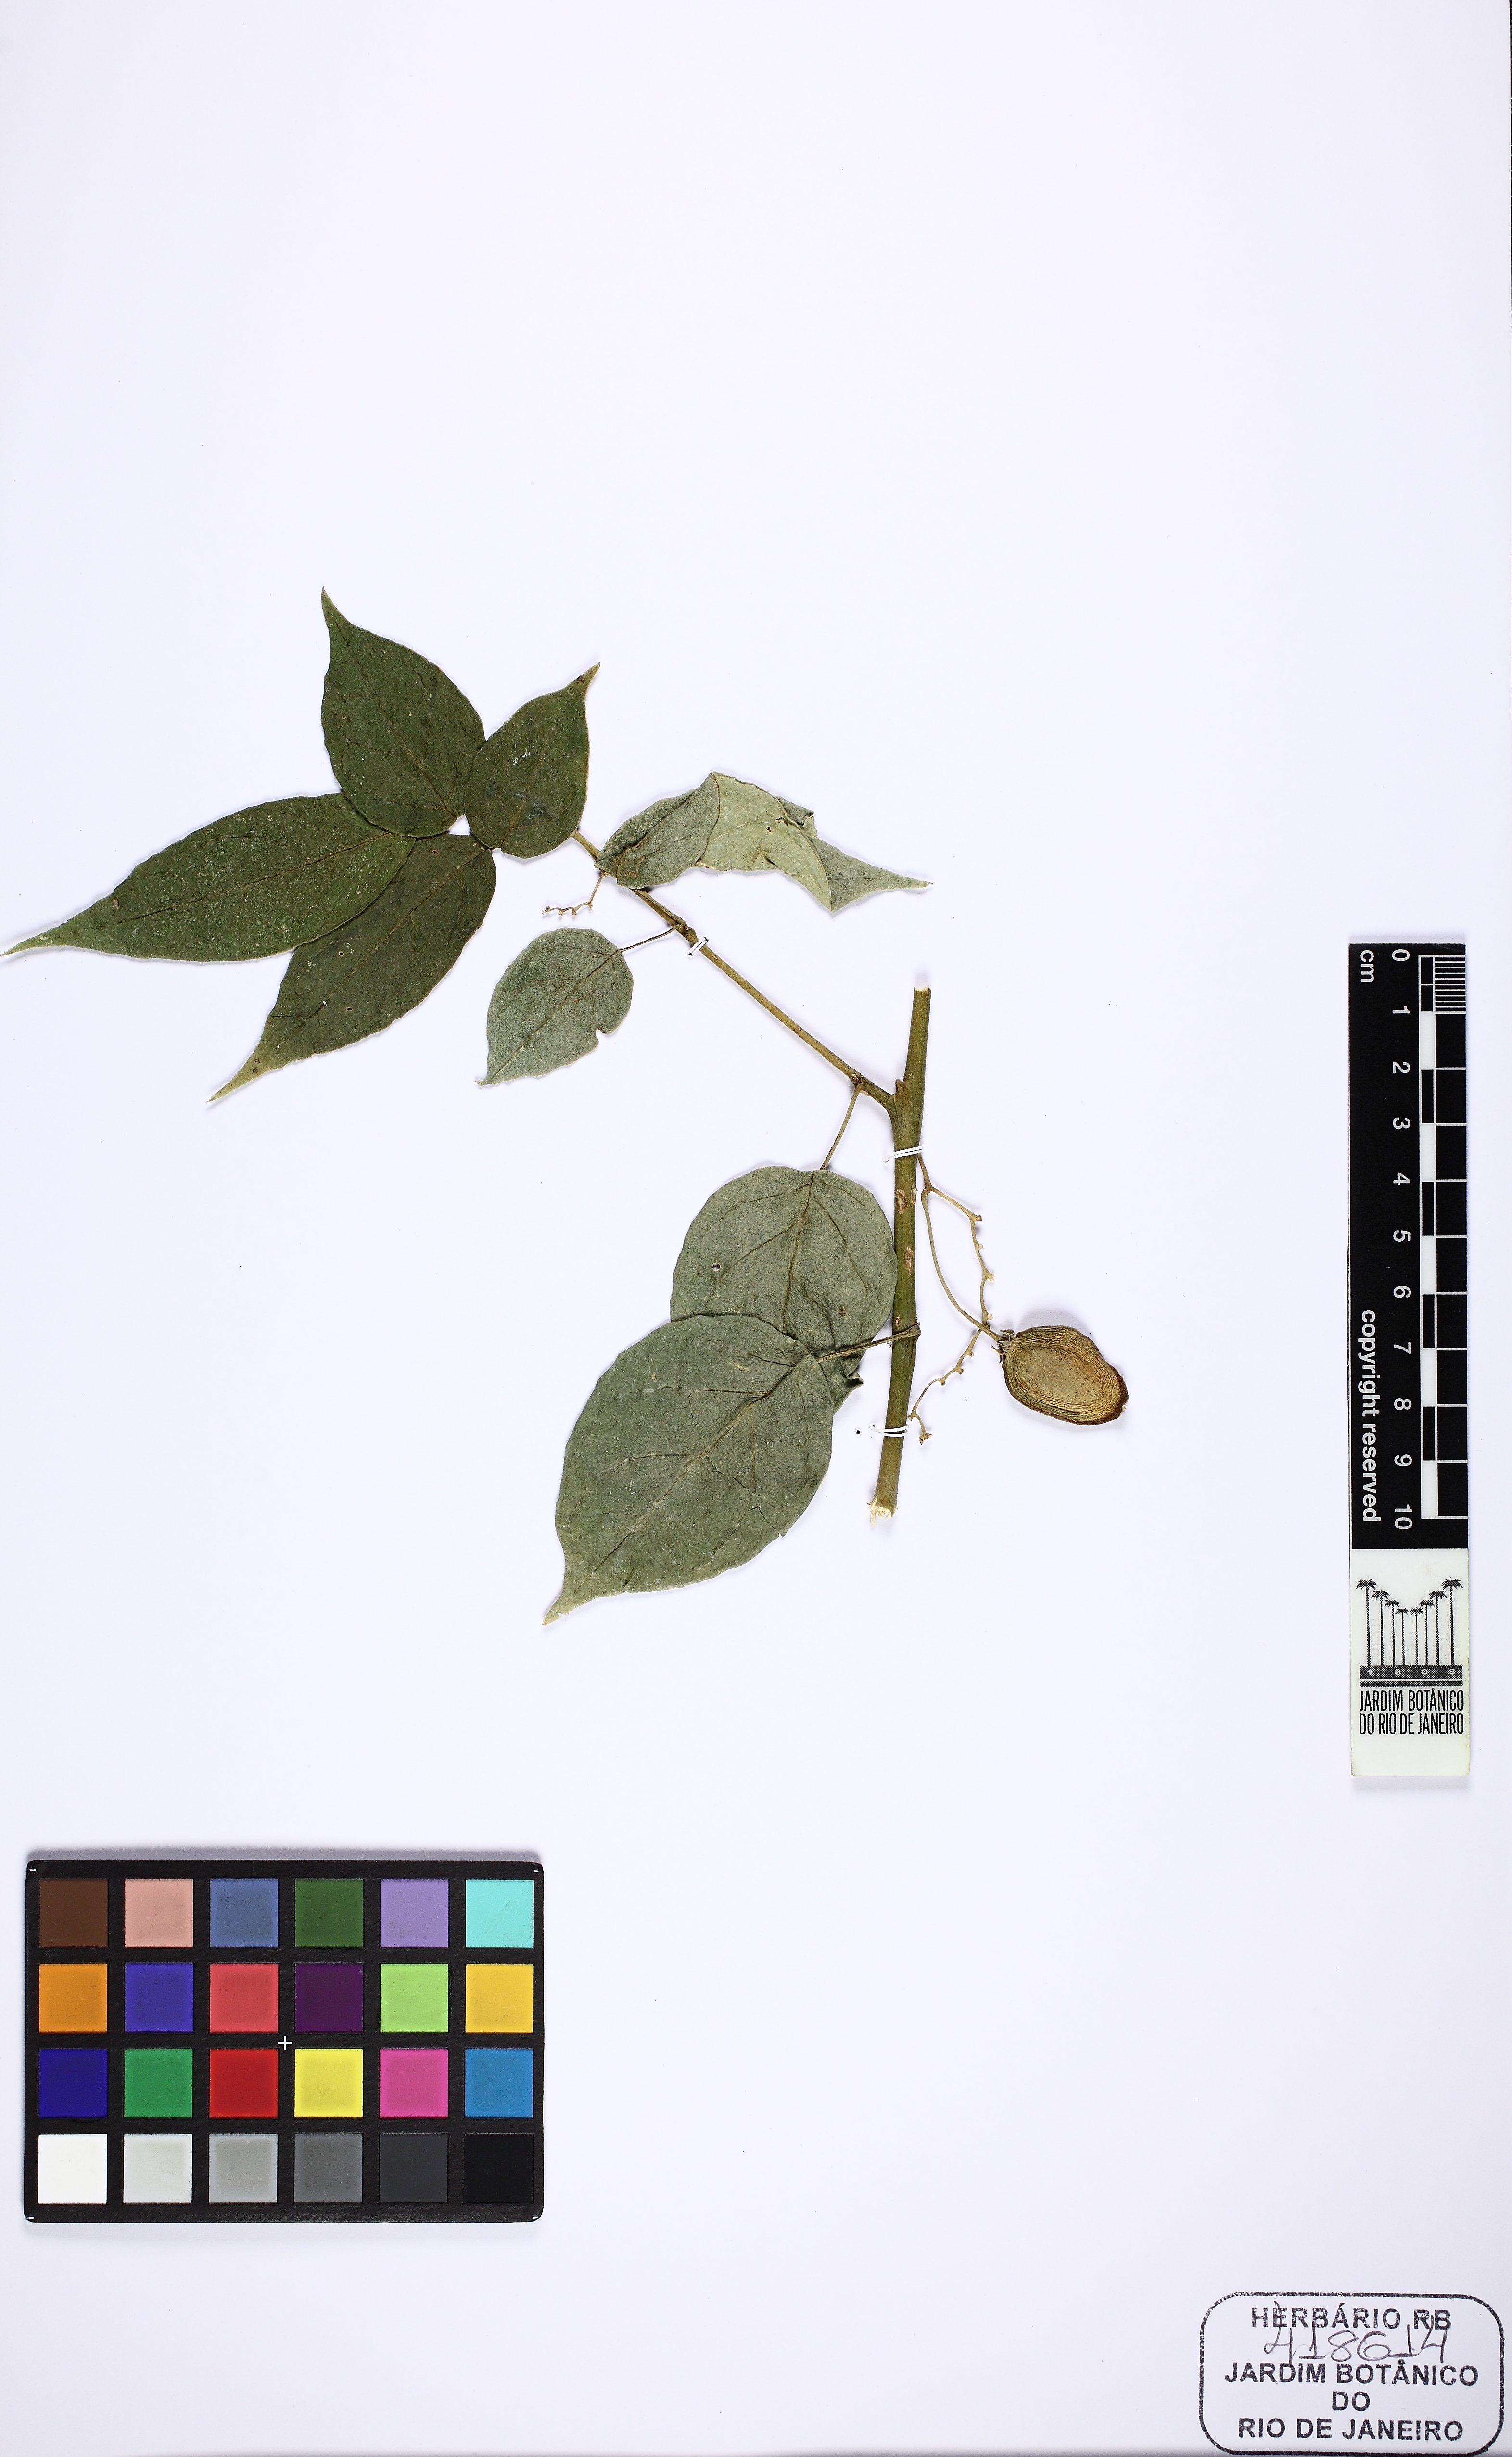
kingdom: Plantae
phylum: Tracheophyta
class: Magnoliopsida
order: Solanales
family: Solanaceae
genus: Solanum
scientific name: Solanum diploconos
